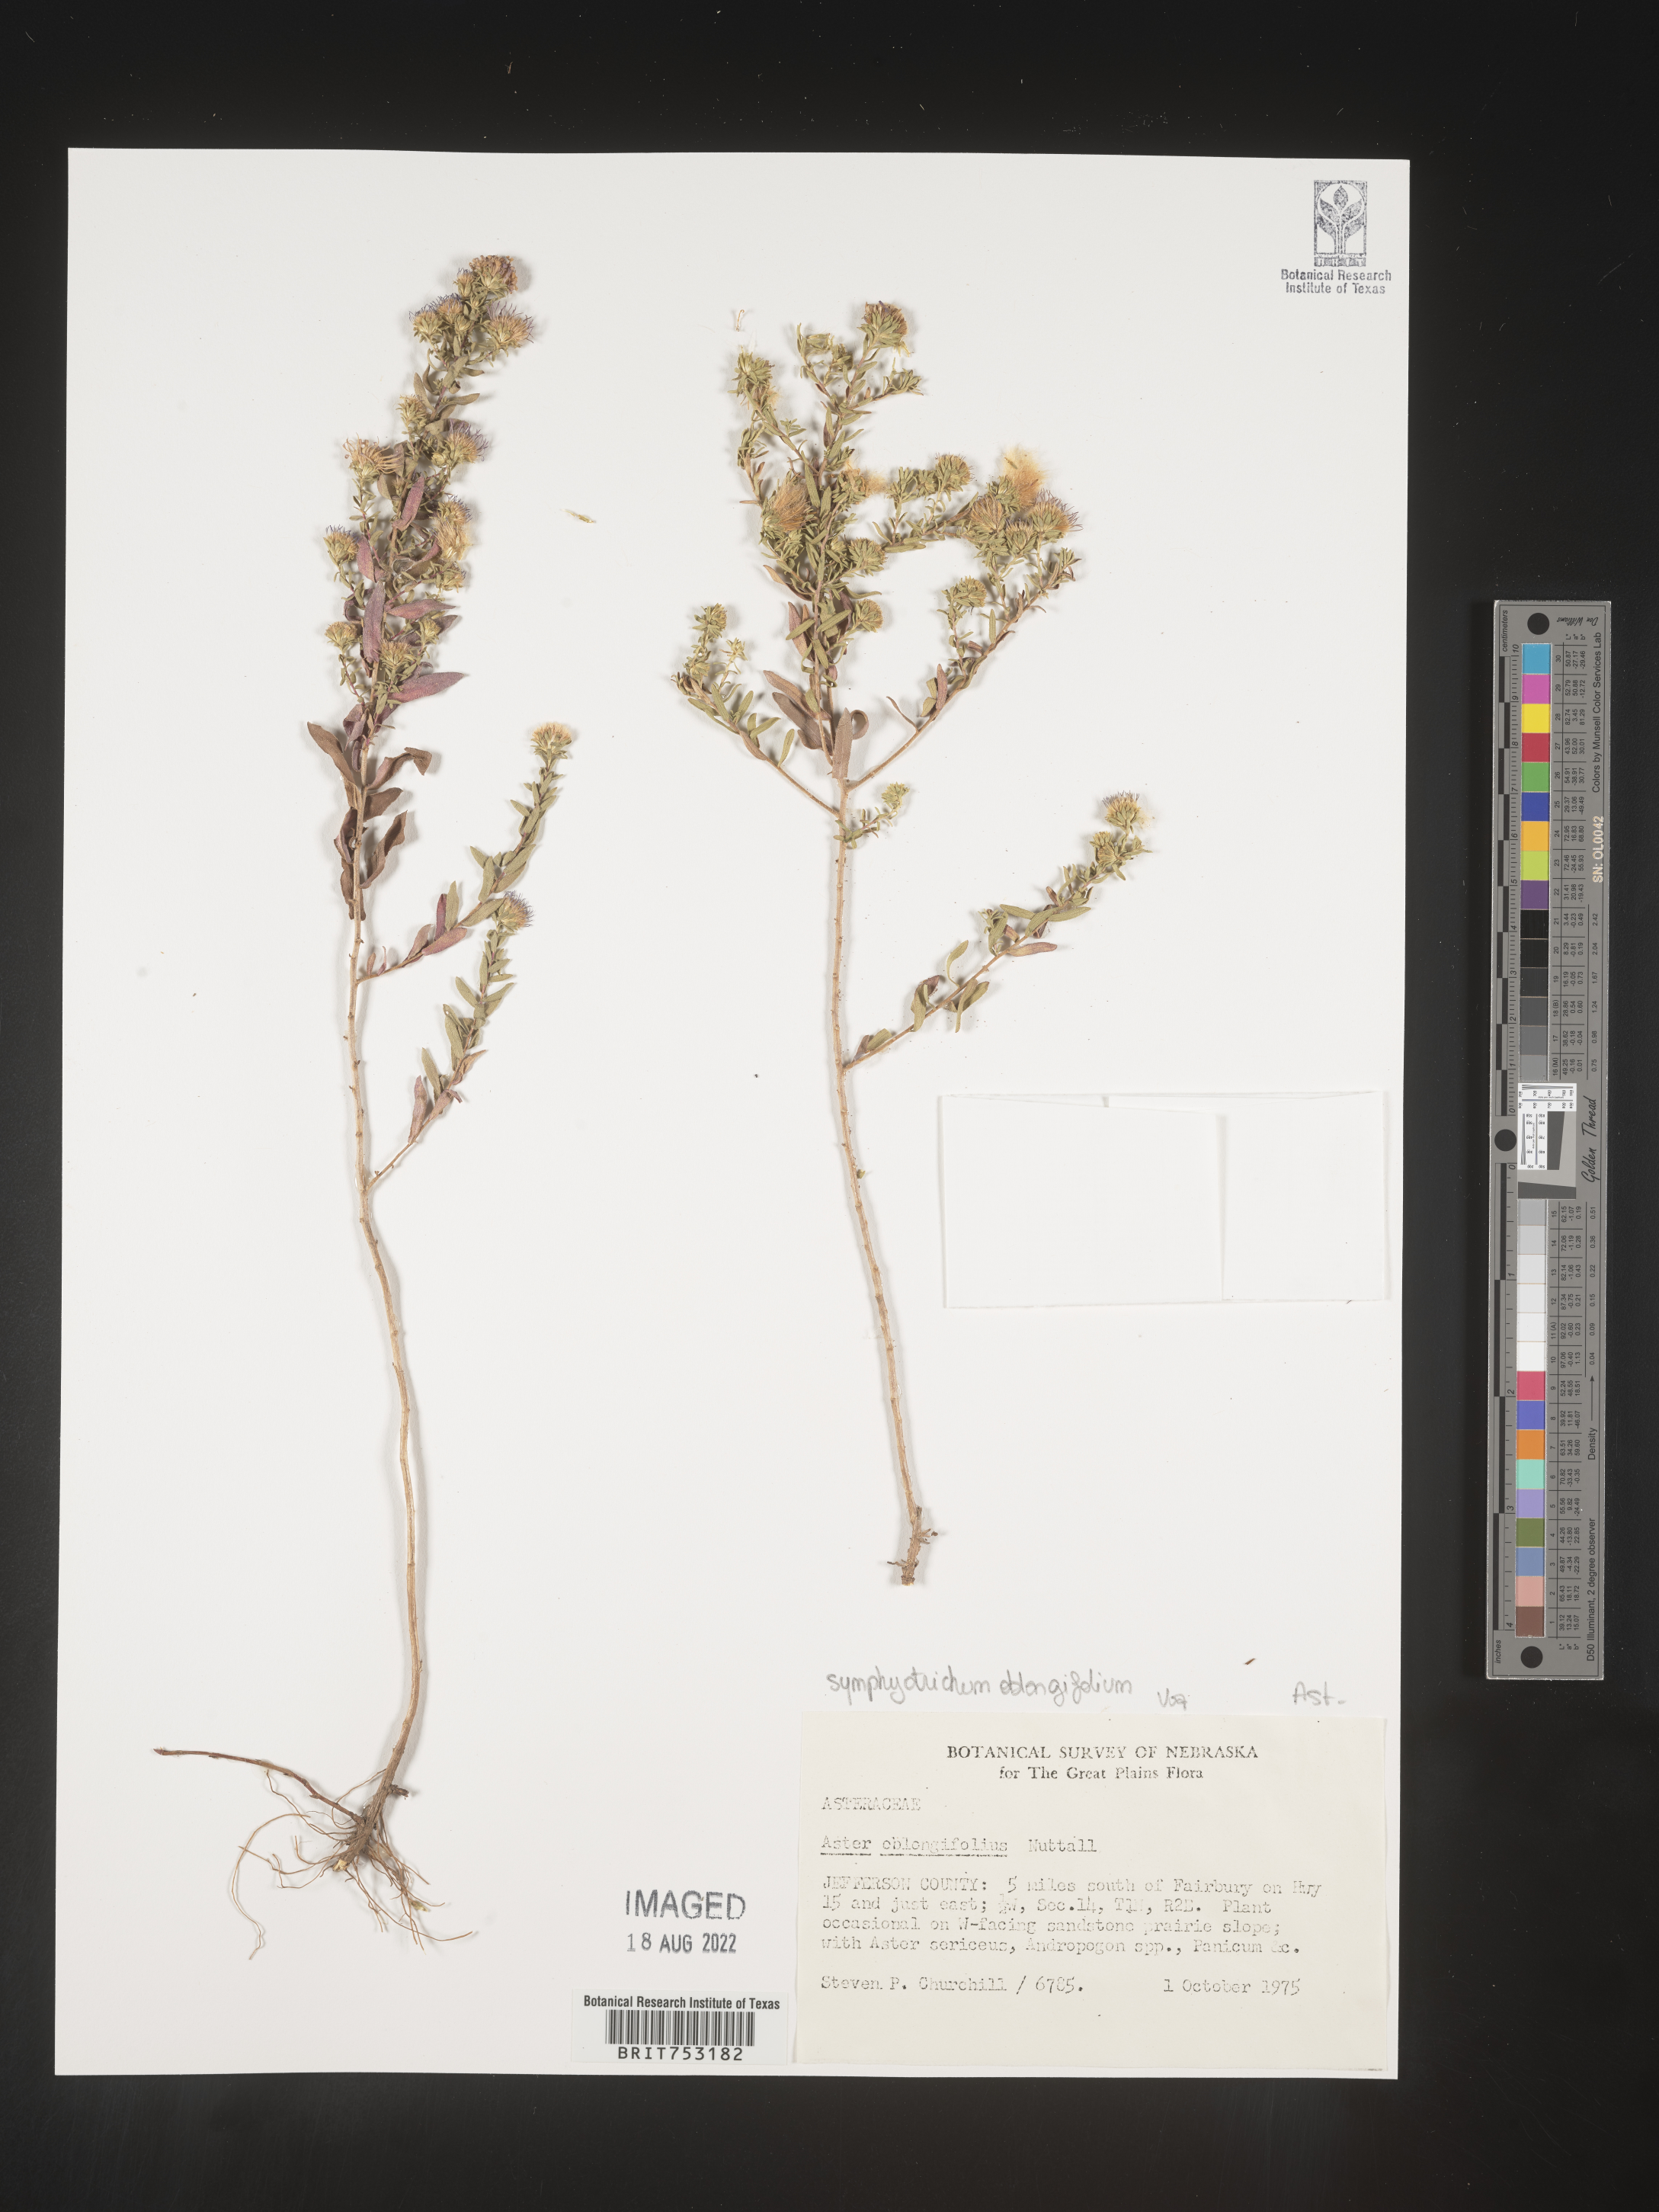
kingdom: Plantae
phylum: Tracheophyta
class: Magnoliopsida
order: Asterales
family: Asteraceae
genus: Symphyotrichum
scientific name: Symphyotrichum oblongifolium
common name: Aromatic aster
